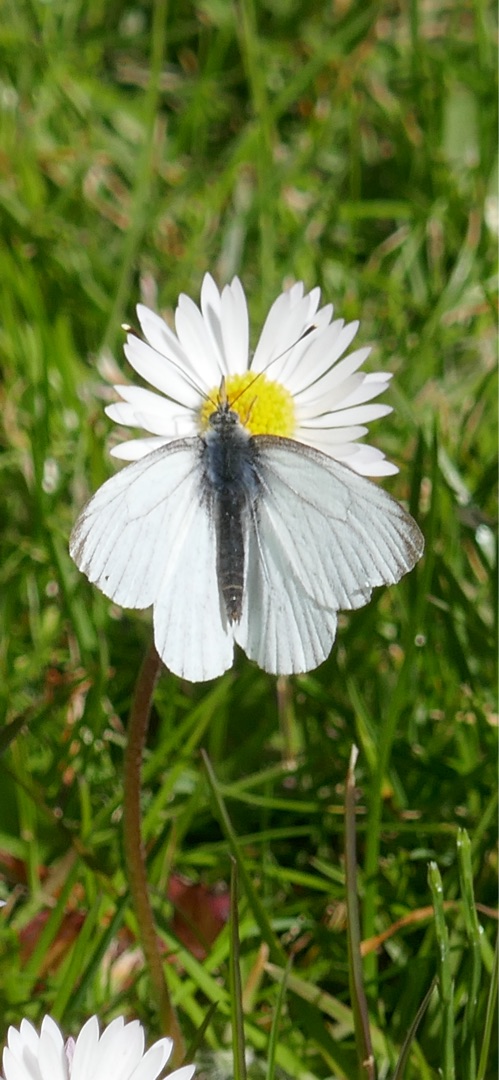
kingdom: Animalia
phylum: Arthropoda
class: Insecta
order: Lepidoptera
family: Pieridae
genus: Pieris
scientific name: Pieris napi
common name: Grønåret kålsommerfugl
